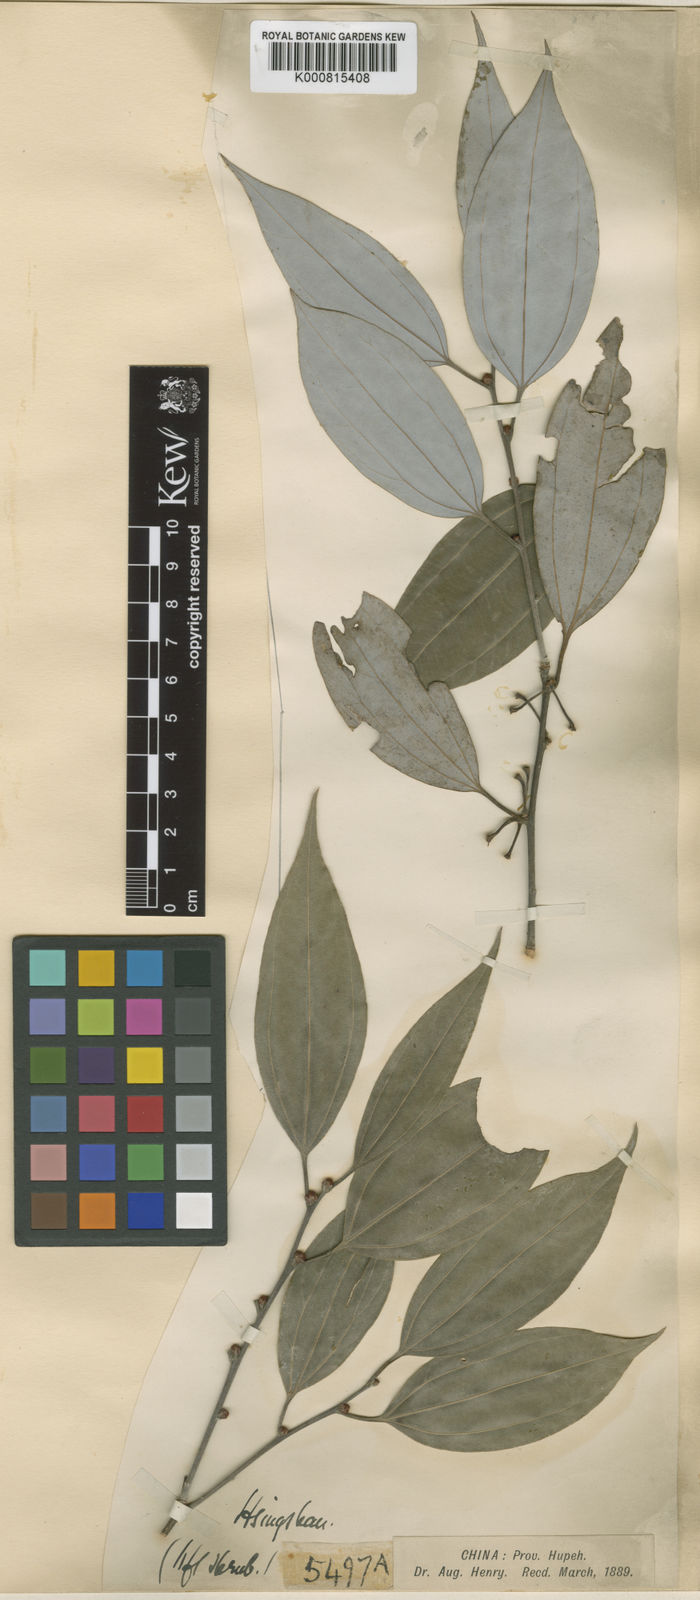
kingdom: Plantae
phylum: Tracheophyta
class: Magnoliopsida
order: Laurales
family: Lauraceae
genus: Lindera
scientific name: Lindera aggregata
